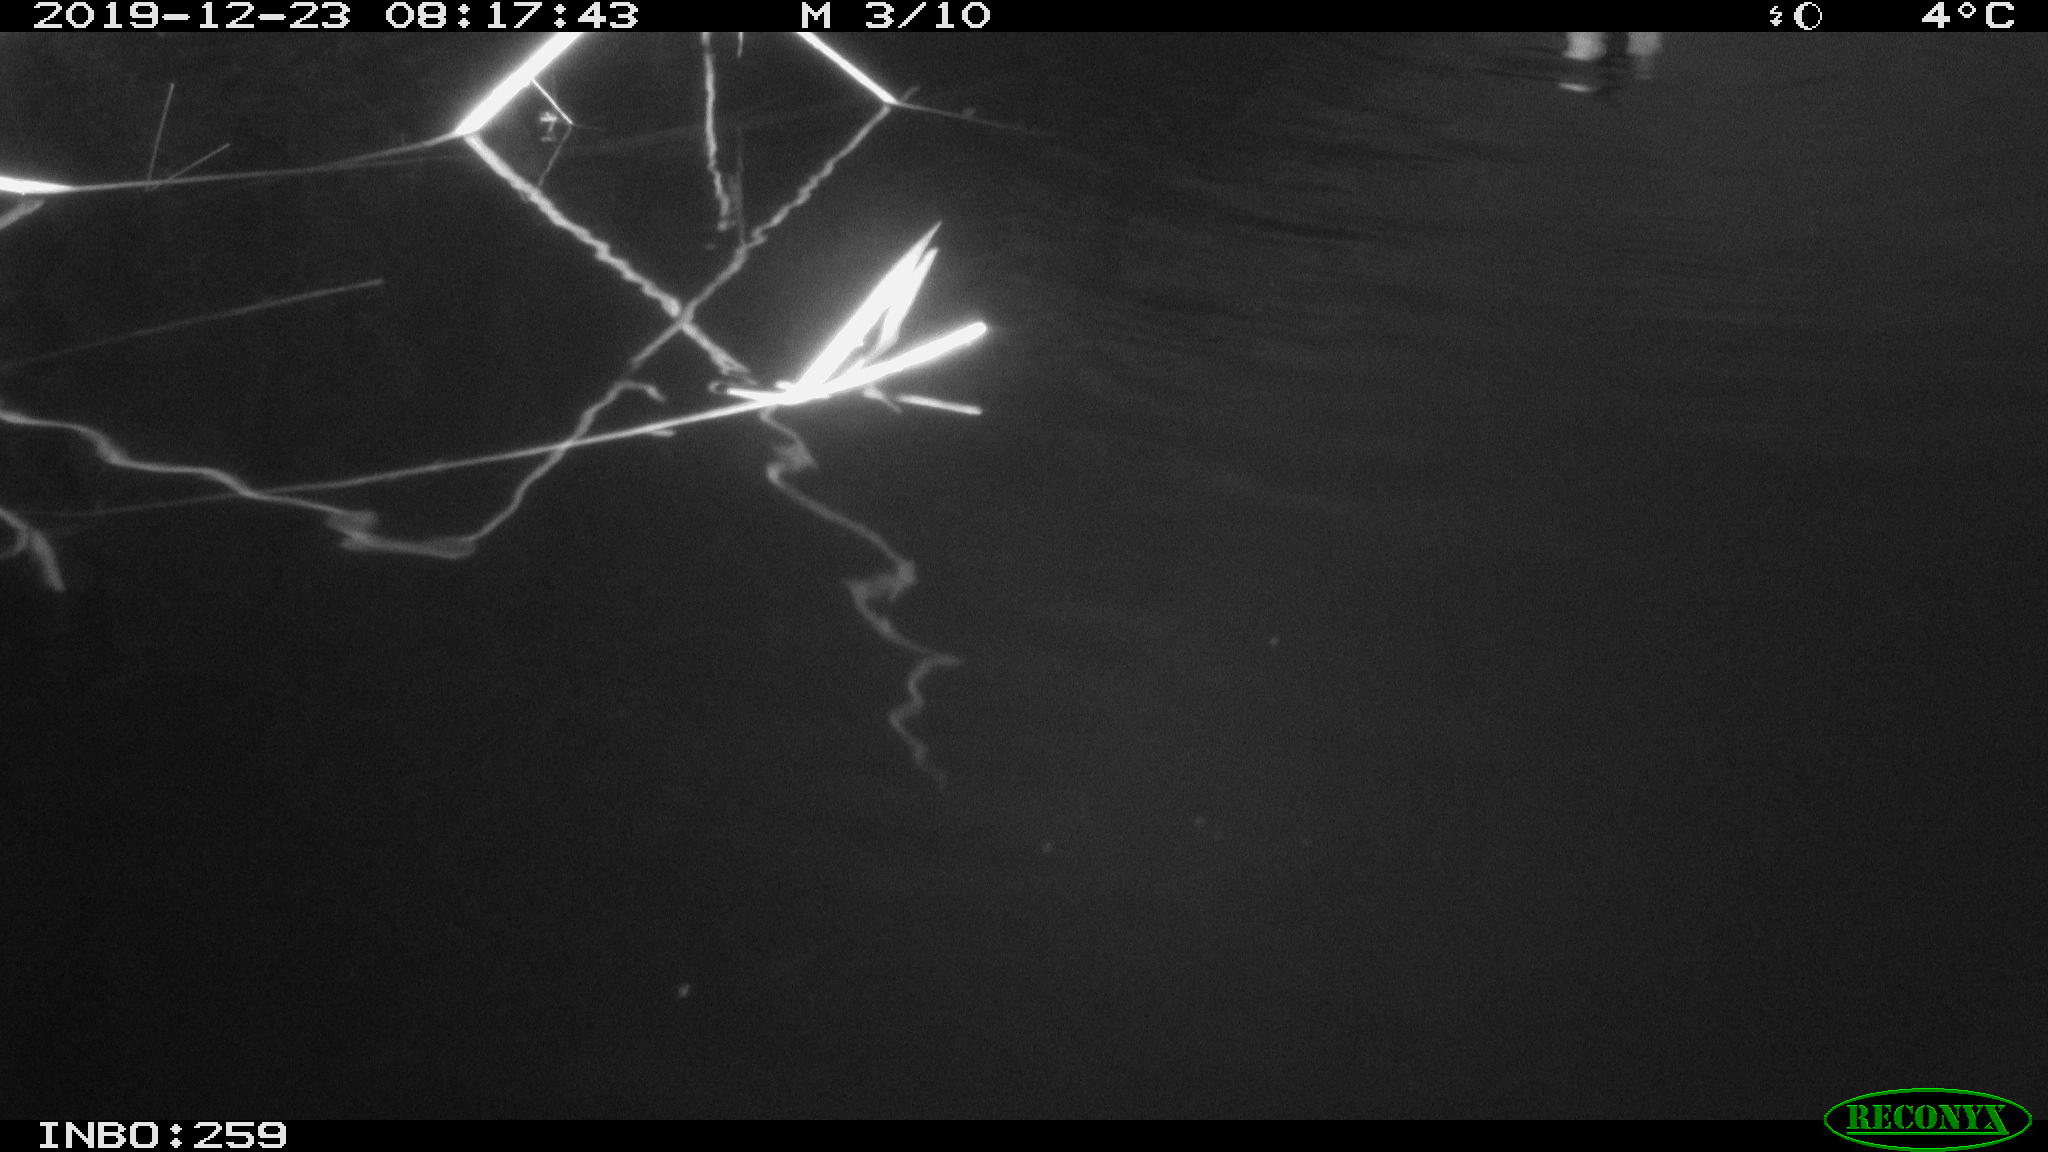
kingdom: Animalia
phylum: Chordata
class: Aves
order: Gruiformes
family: Rallidae
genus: Gallinula
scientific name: Gallinula chloropus
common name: Common moorhen
